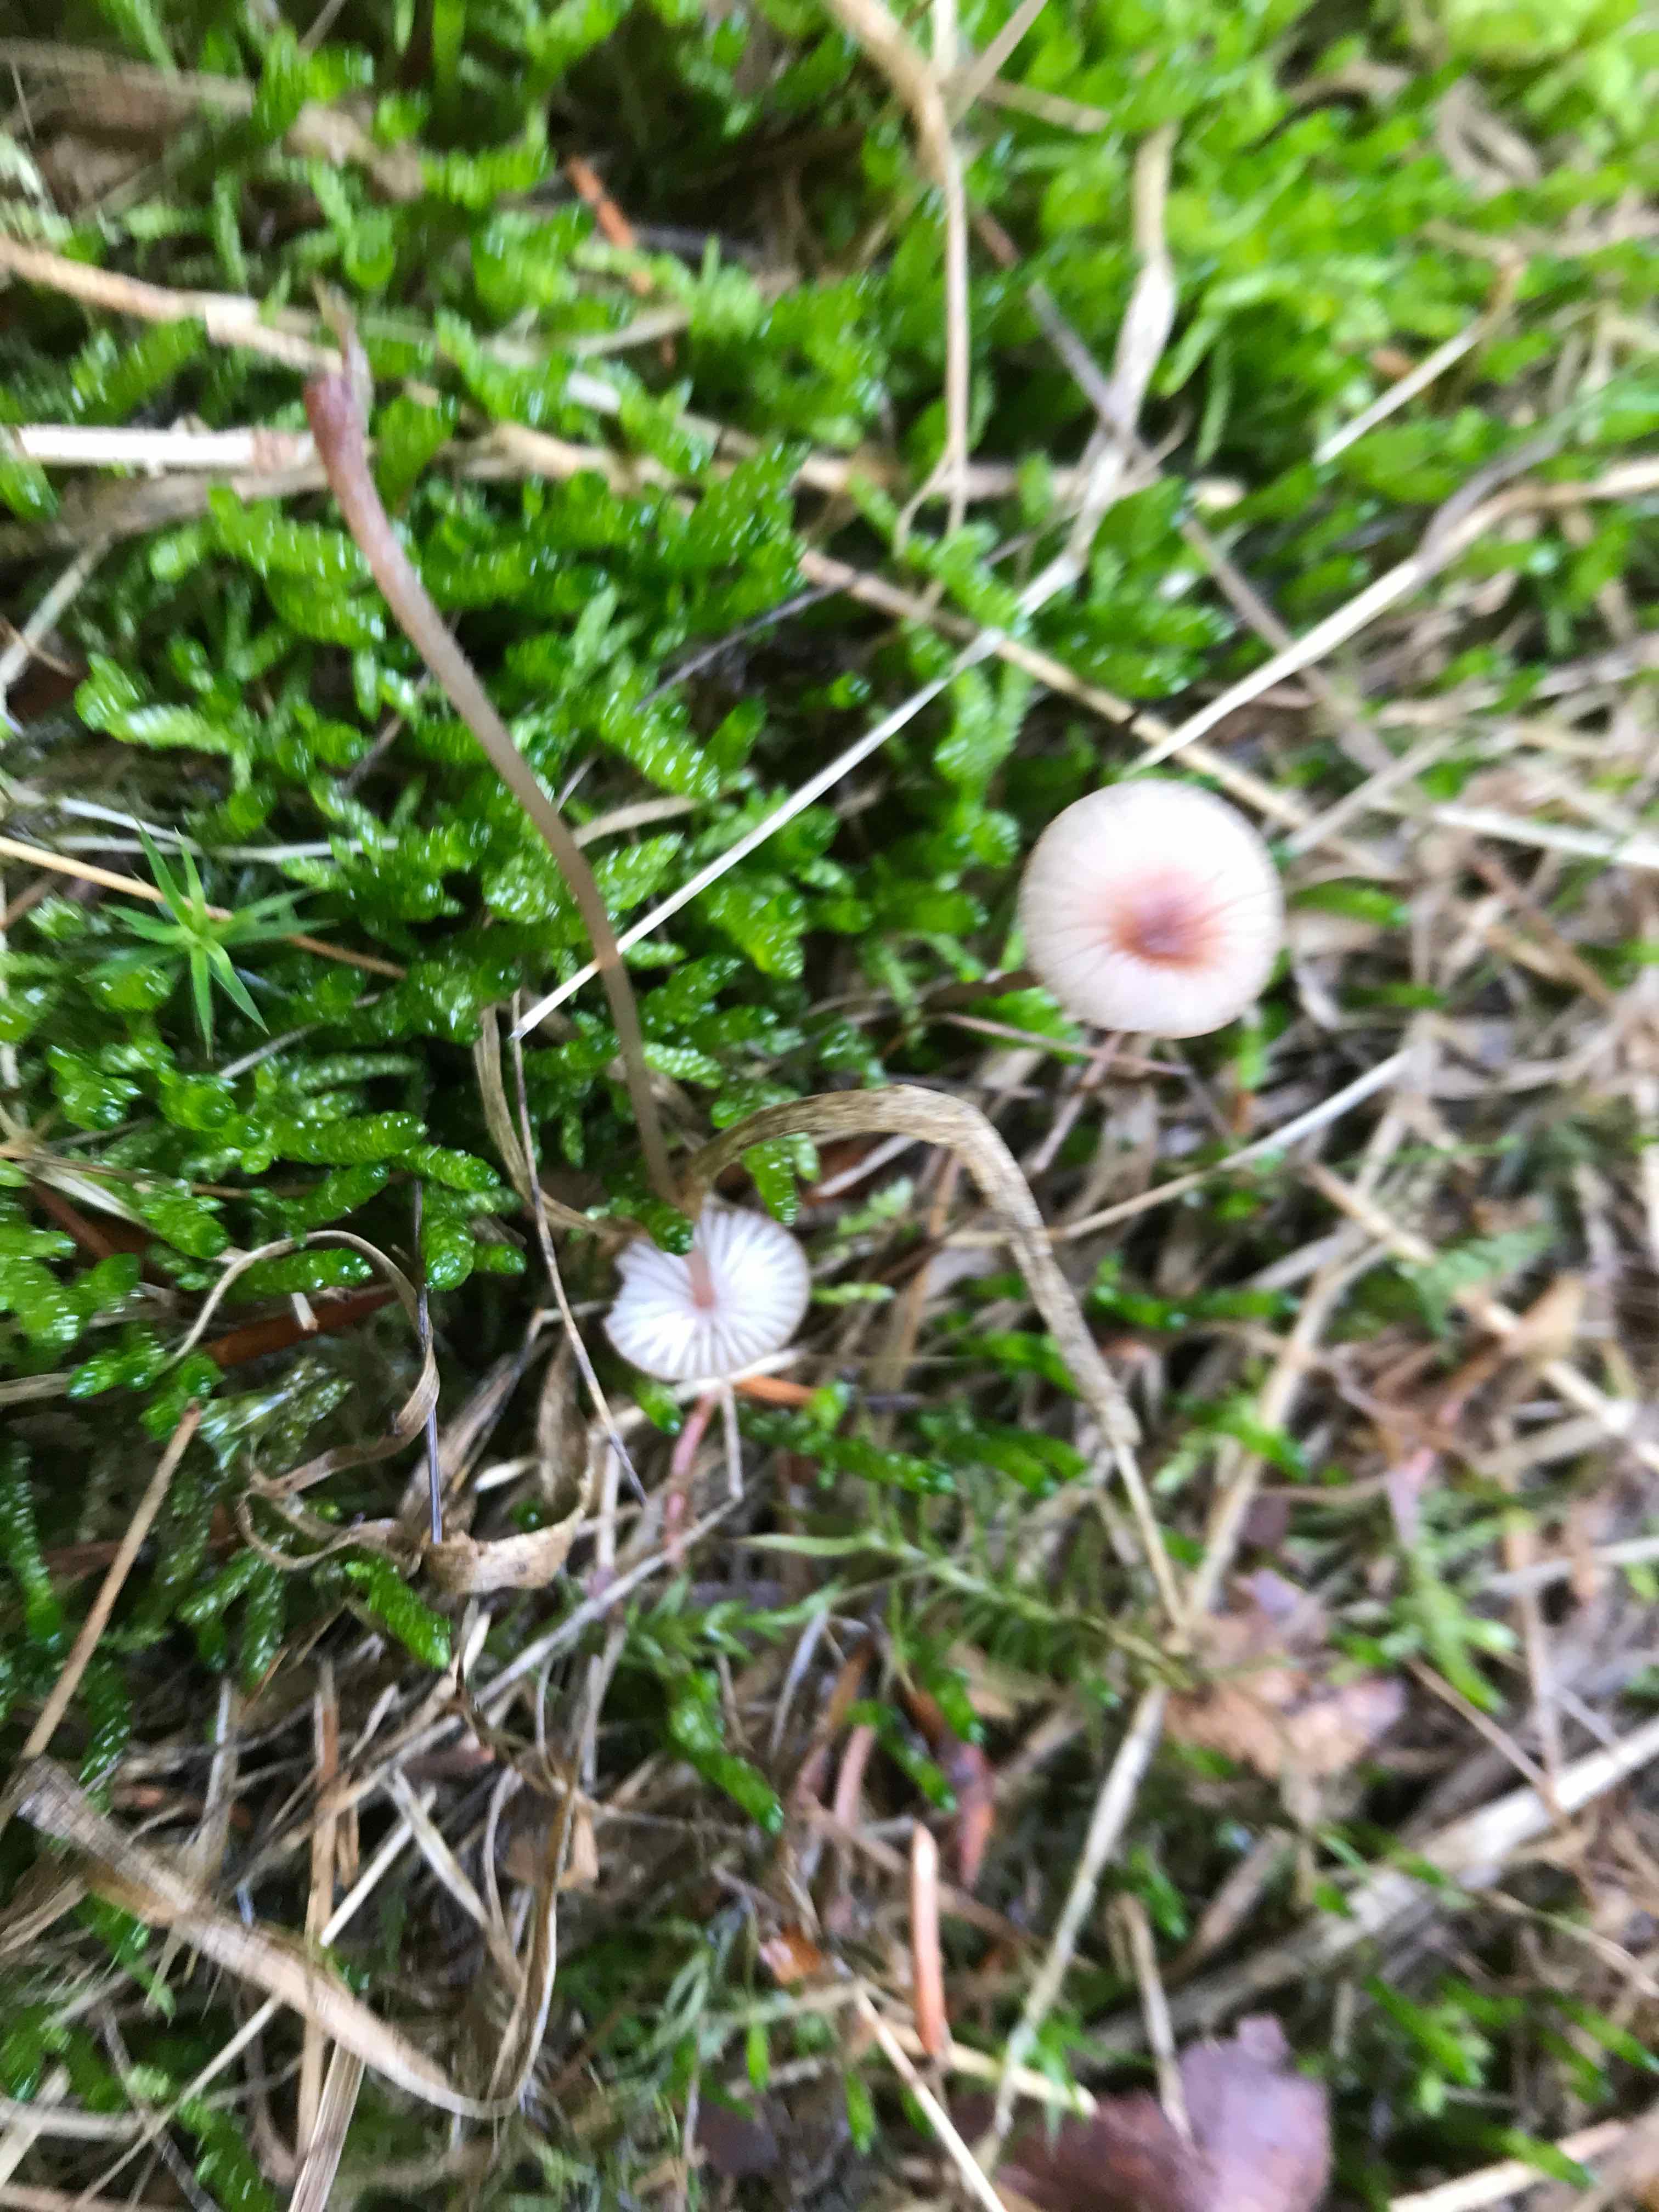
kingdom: Fungi
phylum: Basidiomycota
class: Agaricomycetes
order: Agaricales
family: Mycenaceae
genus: Mycena
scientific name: Mycena sanguinolenta
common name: rødmælket huesvamp
